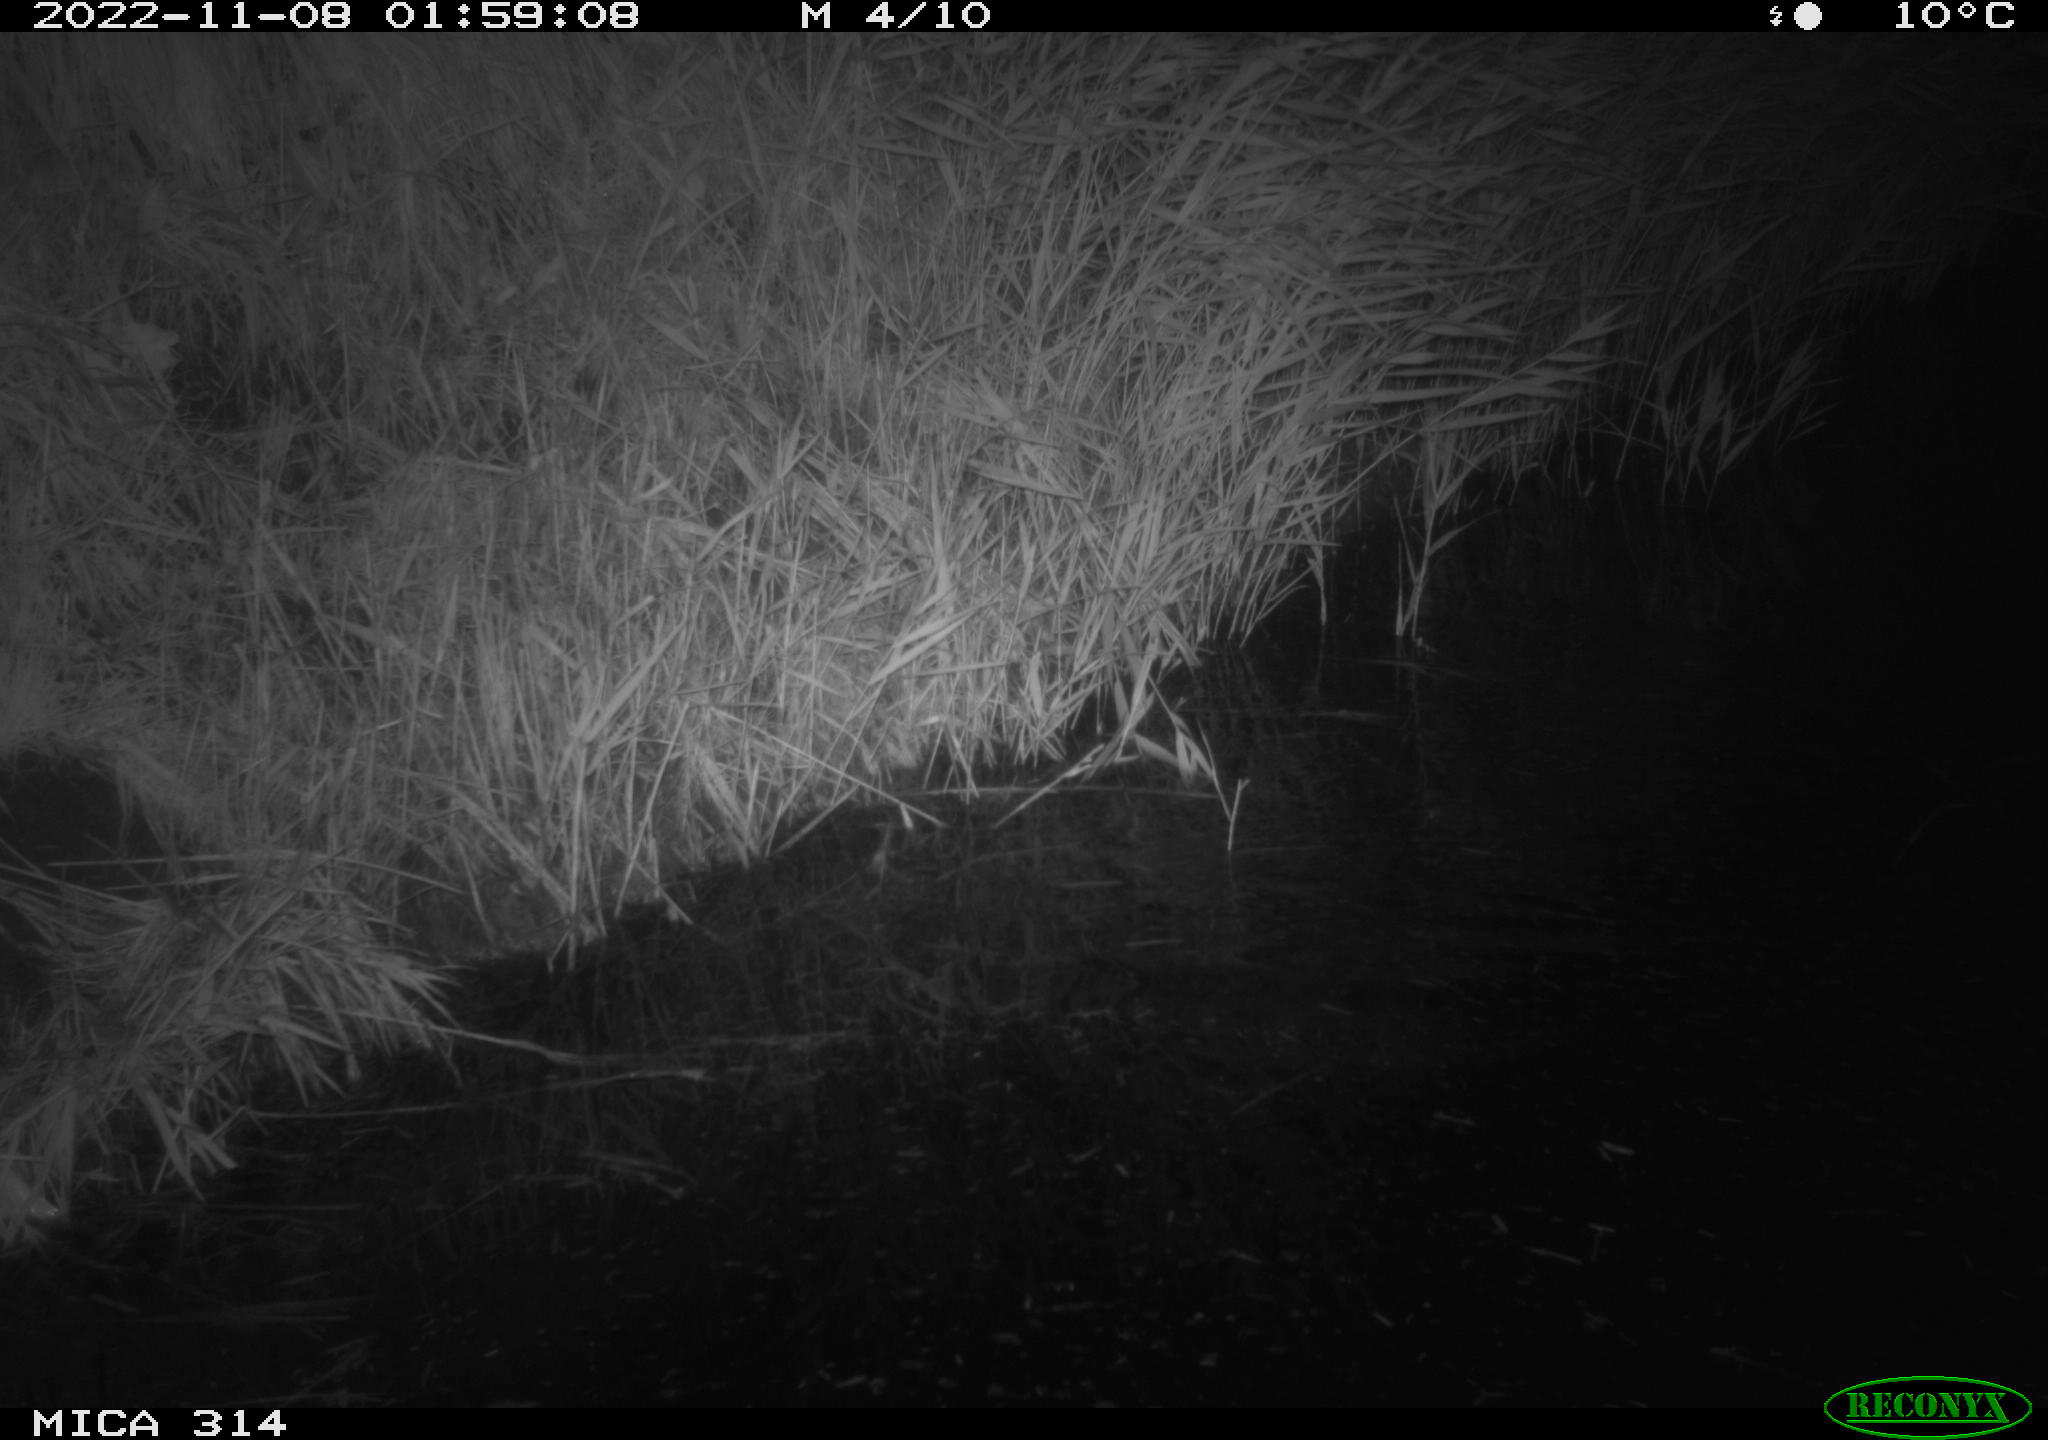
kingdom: Animalia
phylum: Chordata
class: Mammalia
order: Rodentia
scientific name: Rodentia
